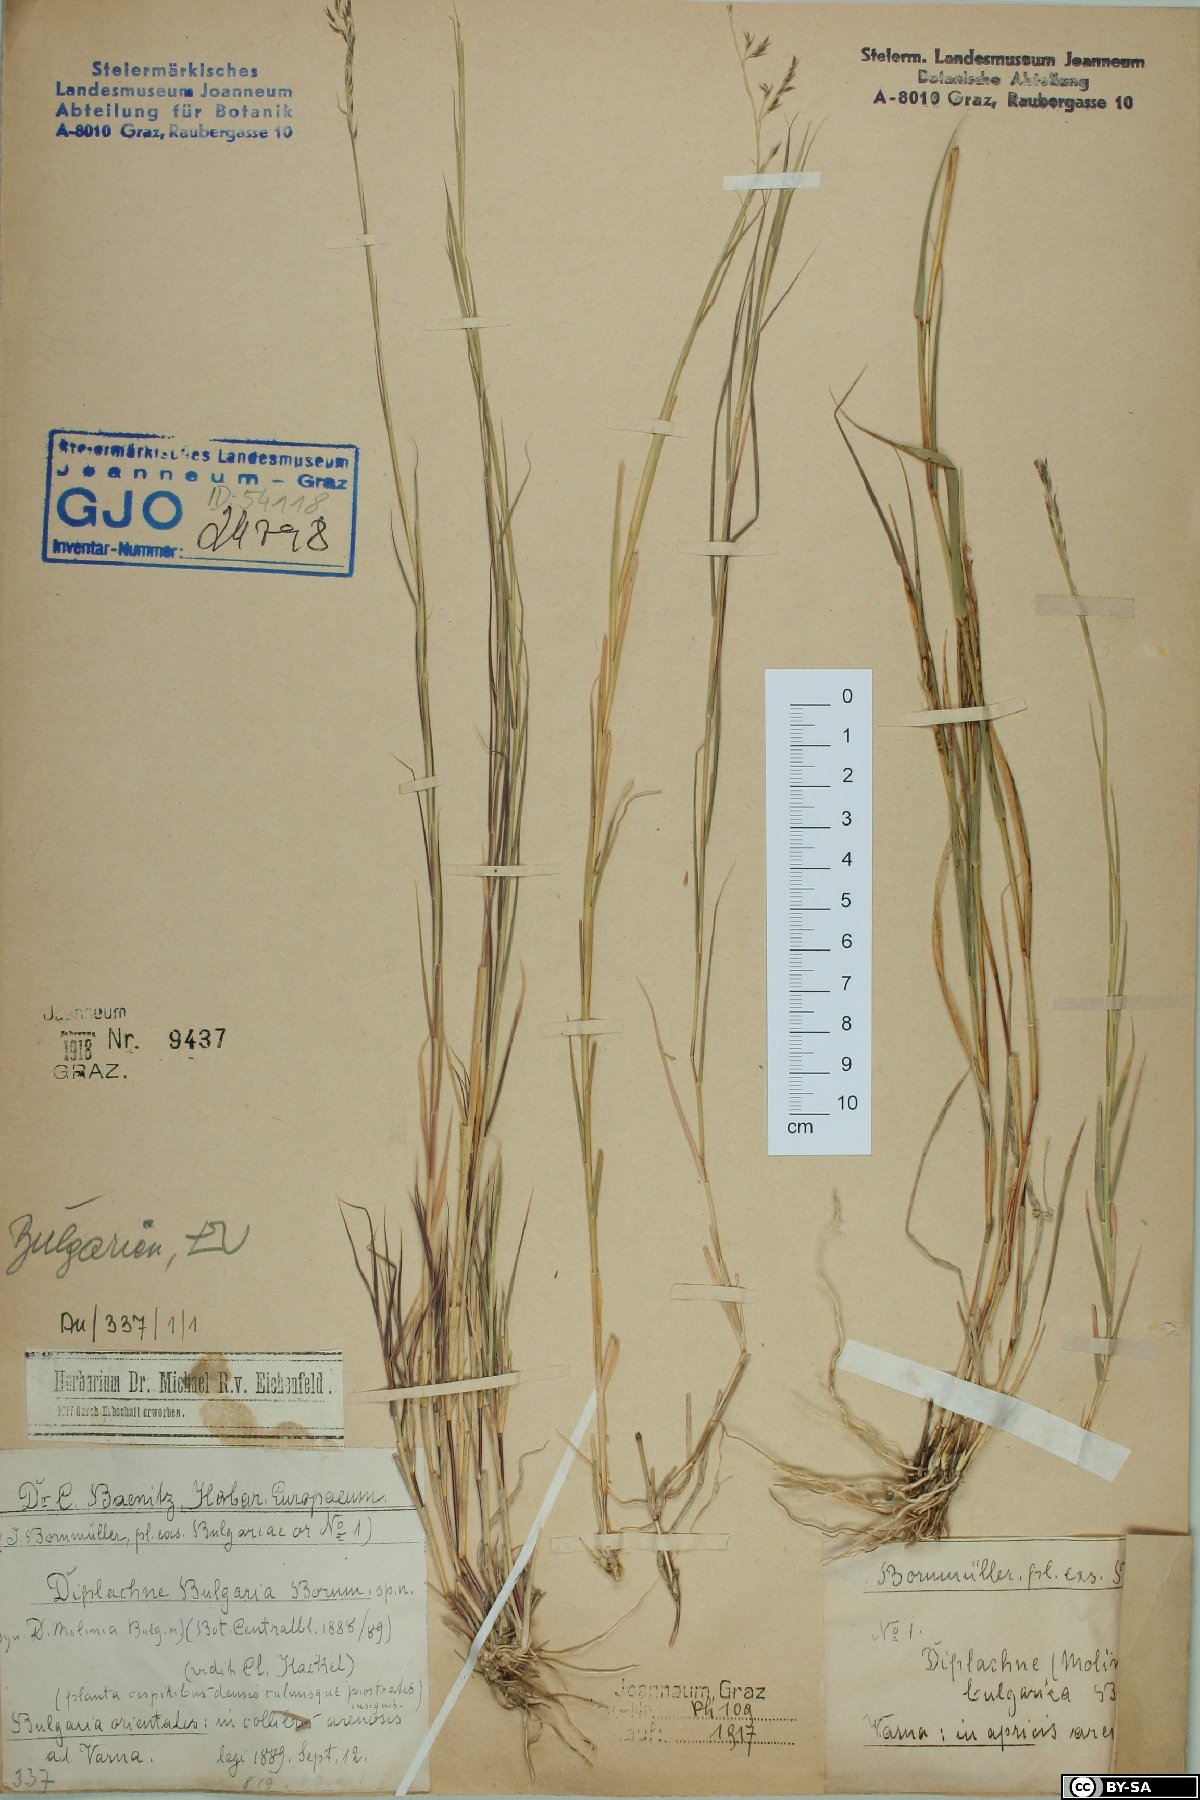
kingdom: Plantae
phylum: Tracheophyta
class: Liliopsida
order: Poales
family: Poaceae
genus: Cleistogenes
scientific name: Cleistogenes serotina
